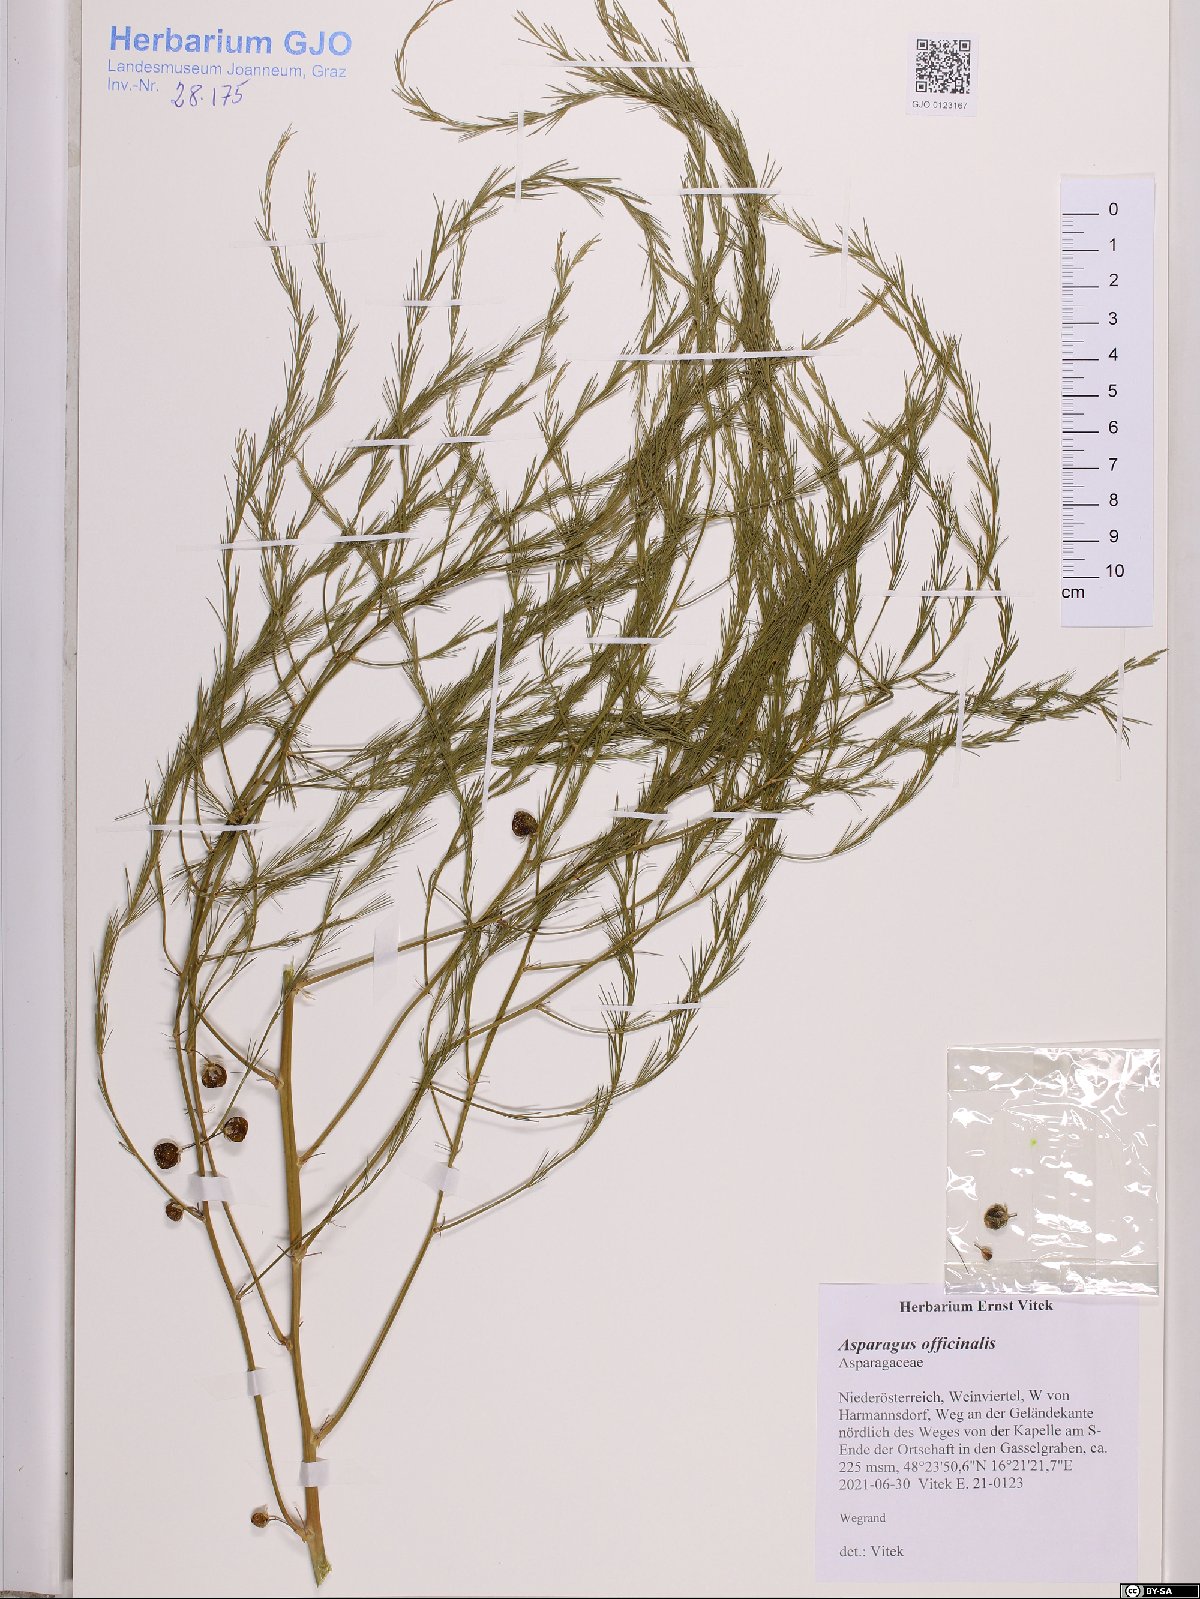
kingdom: Plantae
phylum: Tracheophyta
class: Liliopsida
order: Asparagales
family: Asparagaceae
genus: Asparagus
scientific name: Asparagus officinalis
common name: Garden asparagus
